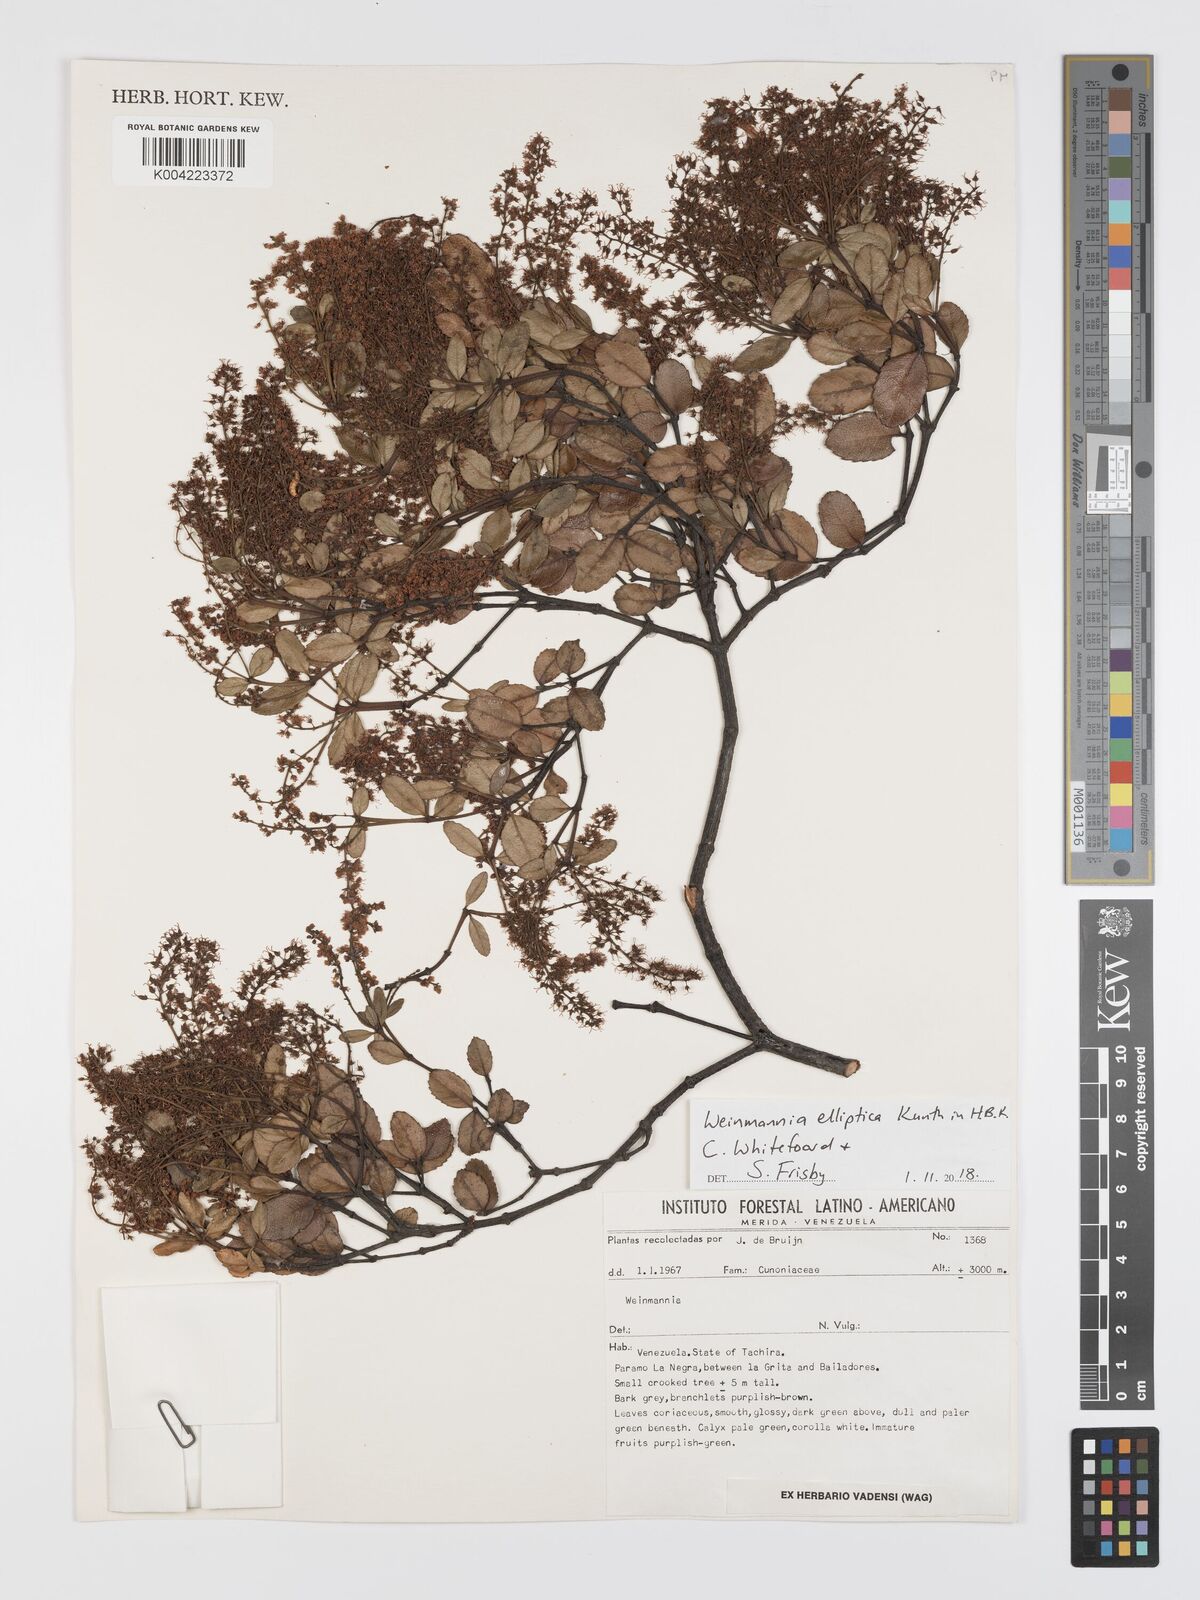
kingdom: Plantae
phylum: Tracheophyta
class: Magnoliopsida
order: Oxalidales
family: Cunoniaceae
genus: Weinmannia
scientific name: Weinmannia elliptica
